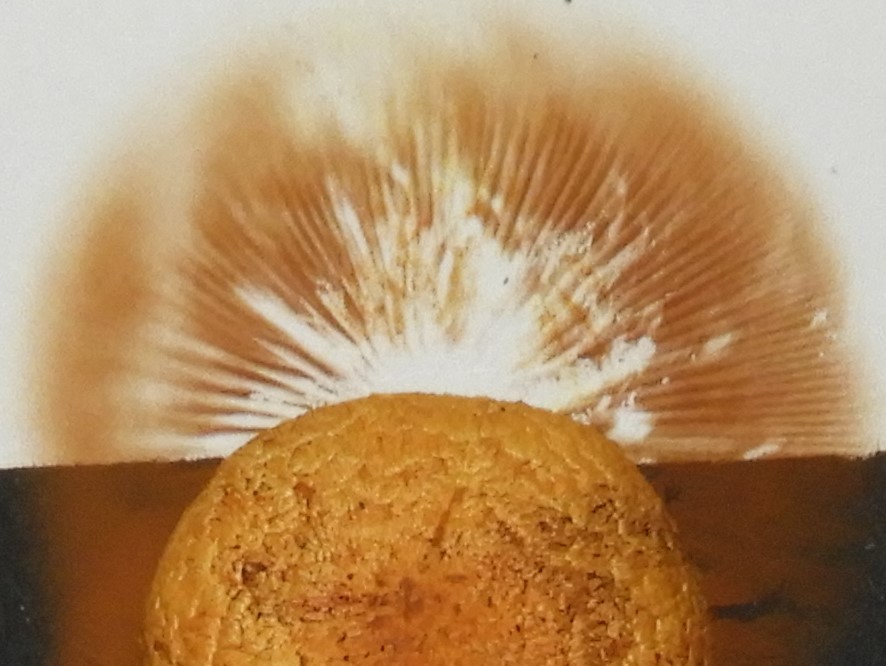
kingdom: Fungi
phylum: Basidiomycota
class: Agaricomycetes
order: Agaricales
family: Strophariaceae
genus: Pholiota
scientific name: Pholiota tuberculosa
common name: finskællet skælhat
